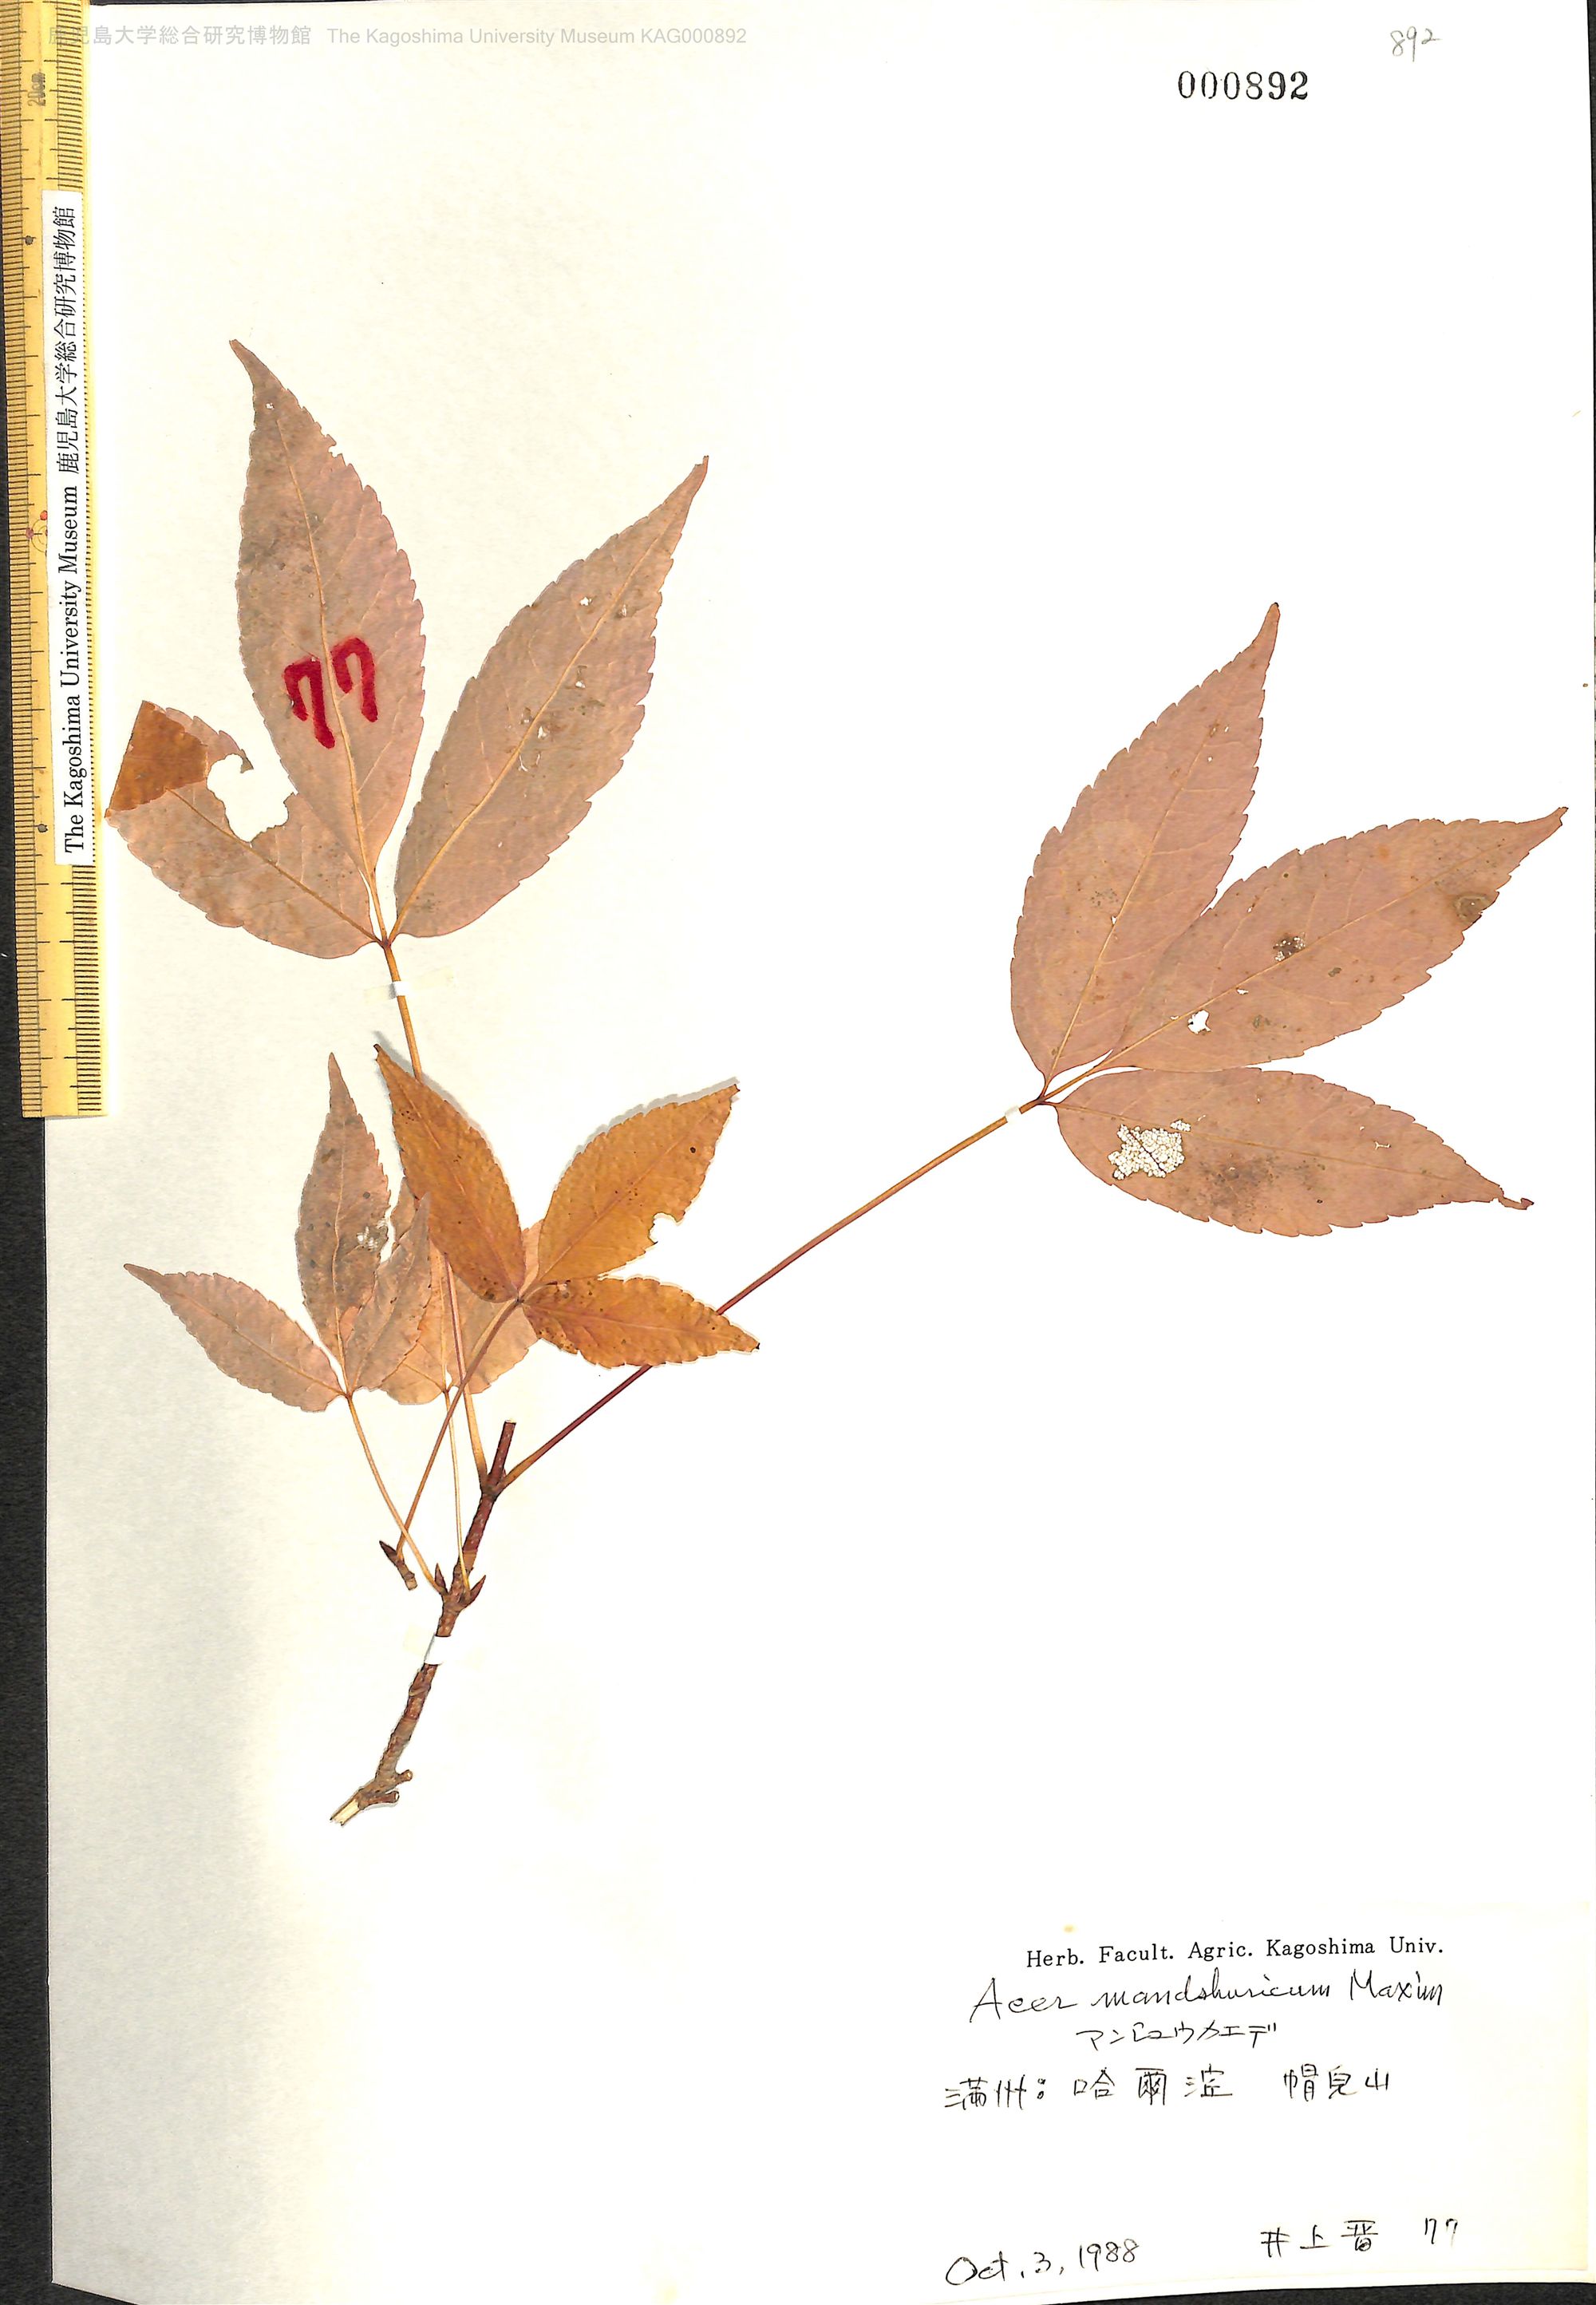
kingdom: Plantae
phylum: Tracheophyta
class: Magnoliopsida
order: Sapindales
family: Sapindaceae
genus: Acer
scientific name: Acer mandshuricum
